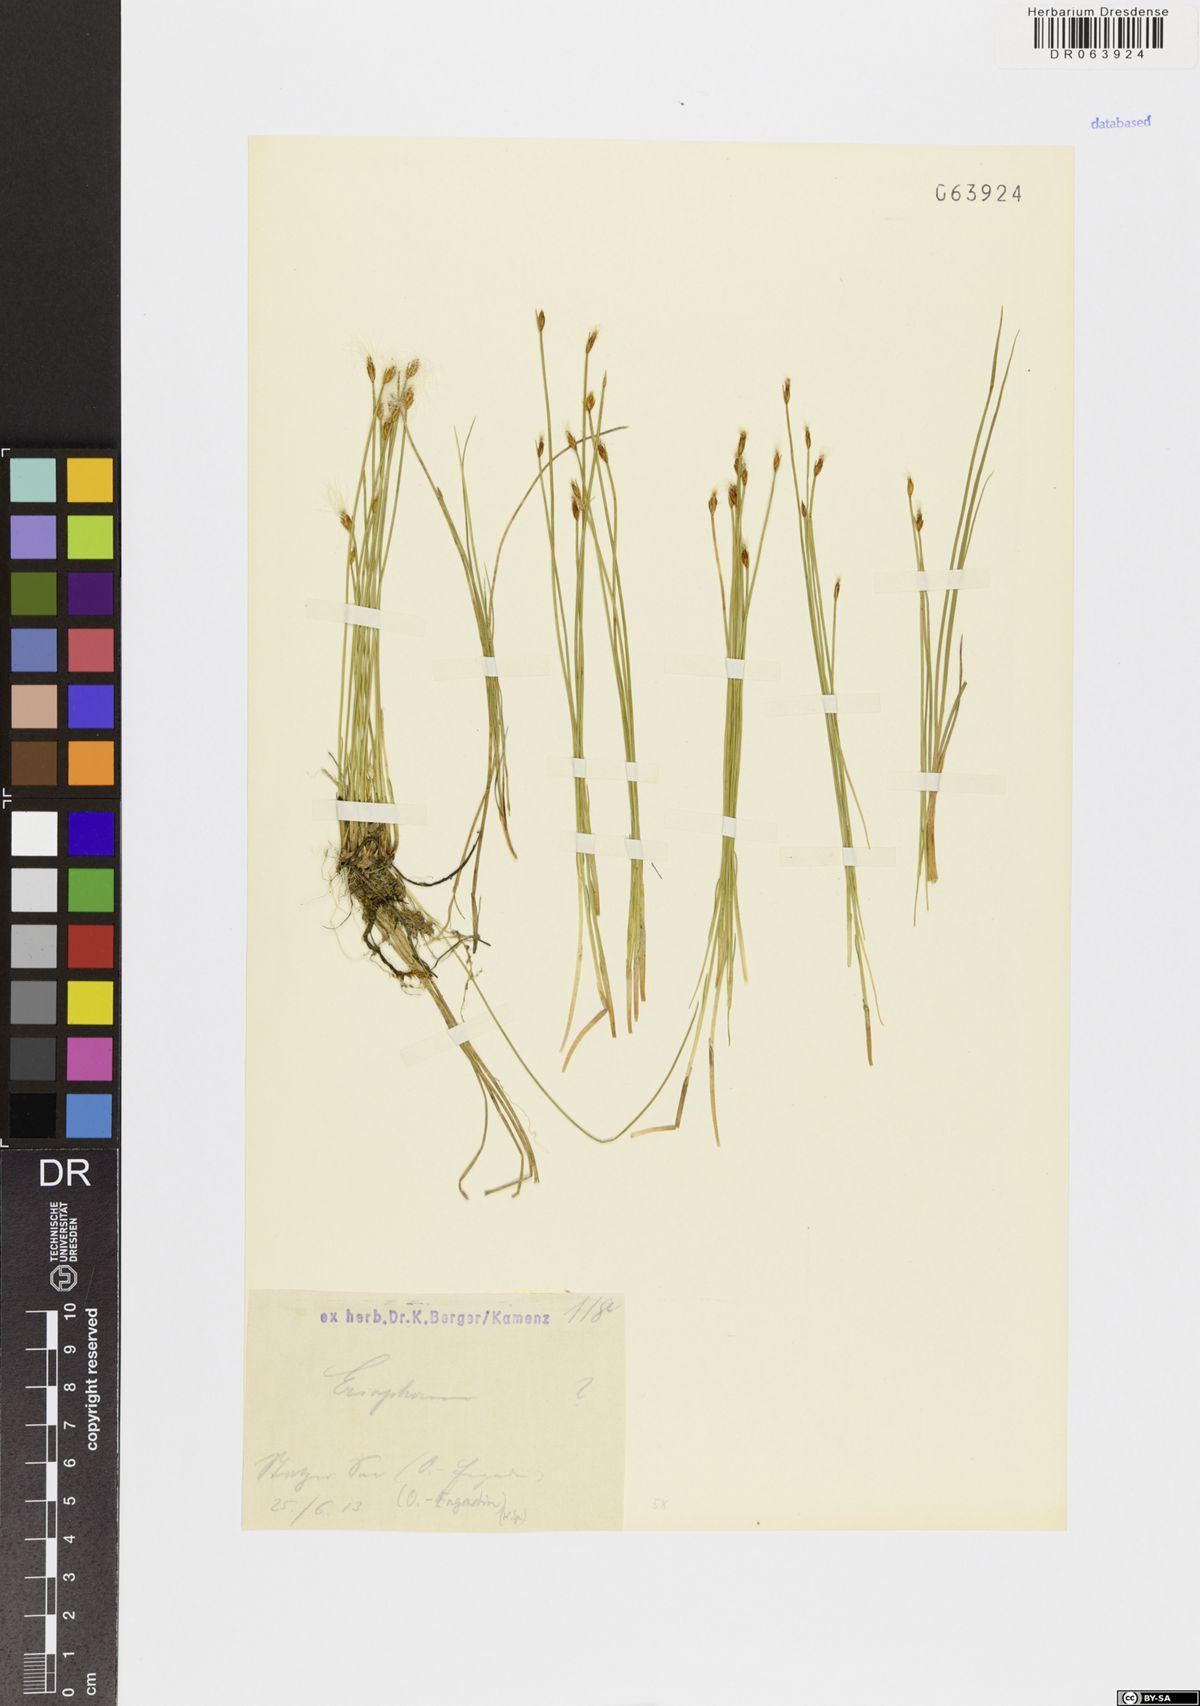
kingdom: Plantae
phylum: Tracheophyta
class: Liliopsida
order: Poales
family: Cyperaceae
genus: Eriophorum
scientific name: Eriophorum
